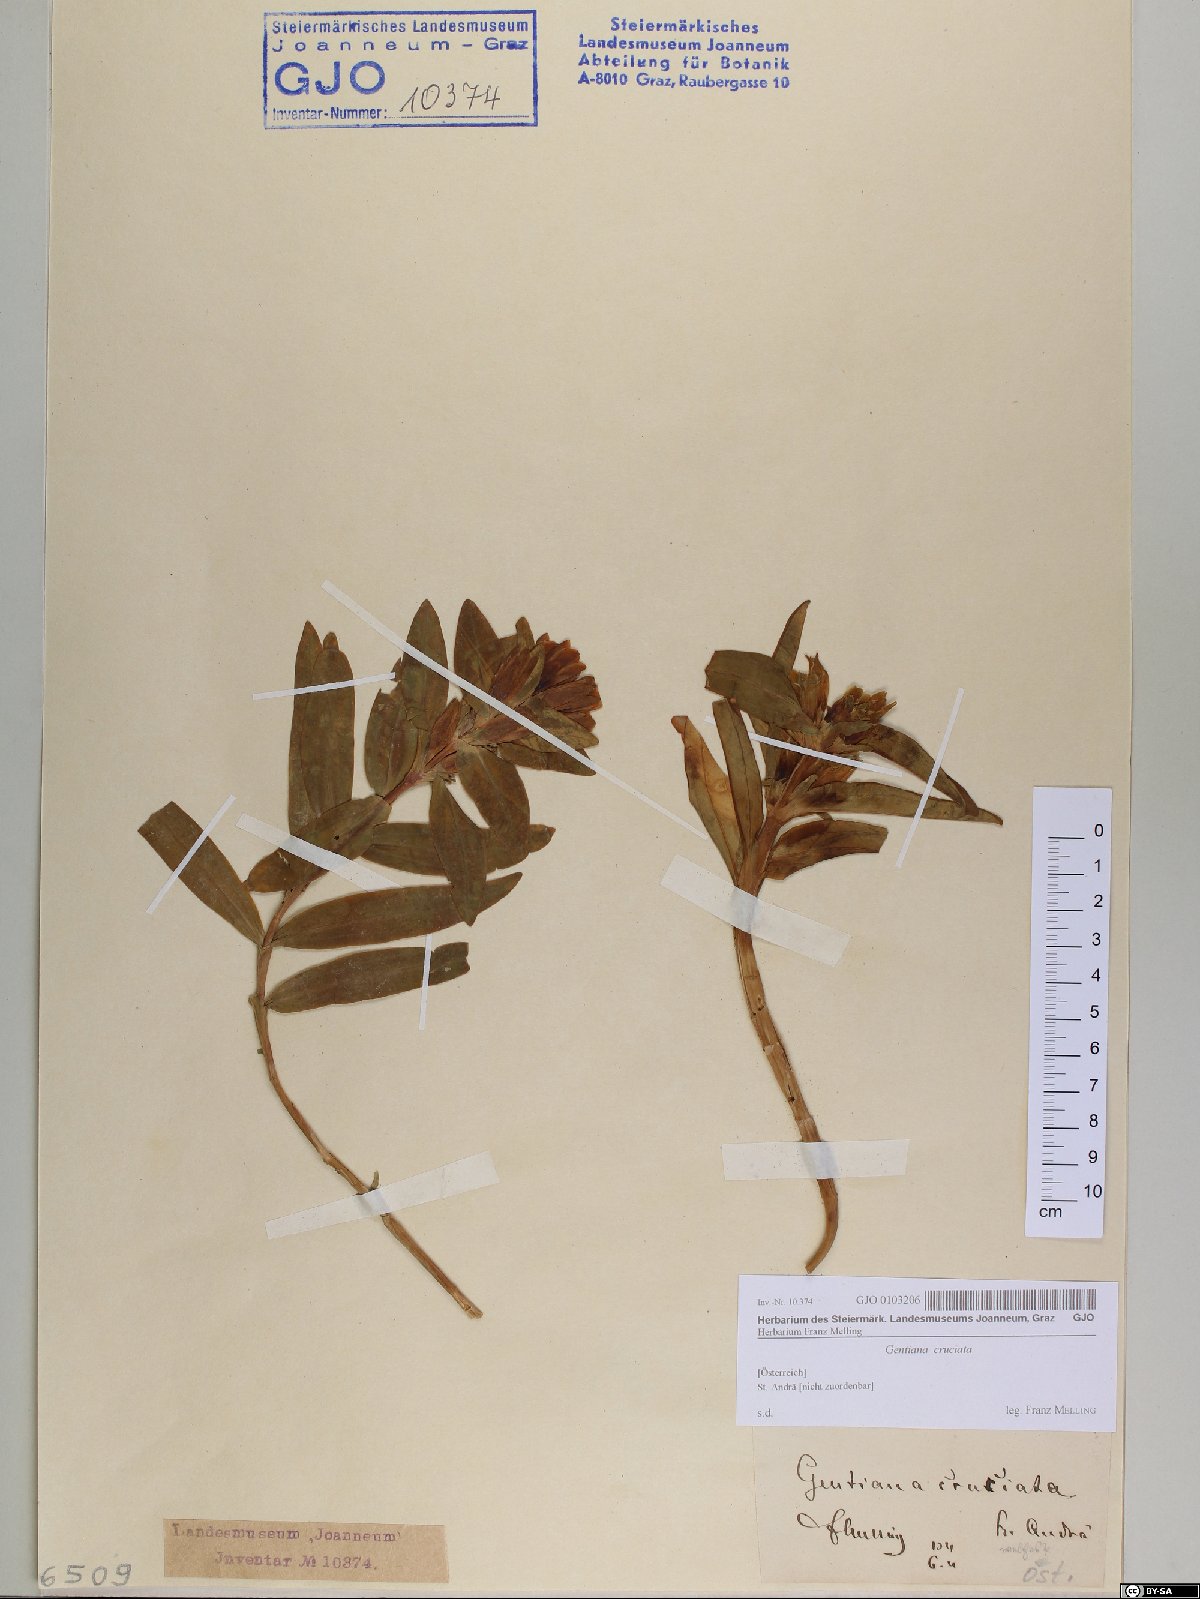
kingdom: Plantae
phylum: Tracheophyta
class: Magnoliopsida
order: Gentianales
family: Gentianaceae
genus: Gentiana
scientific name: Gentiana cruciata
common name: Cross gentian
